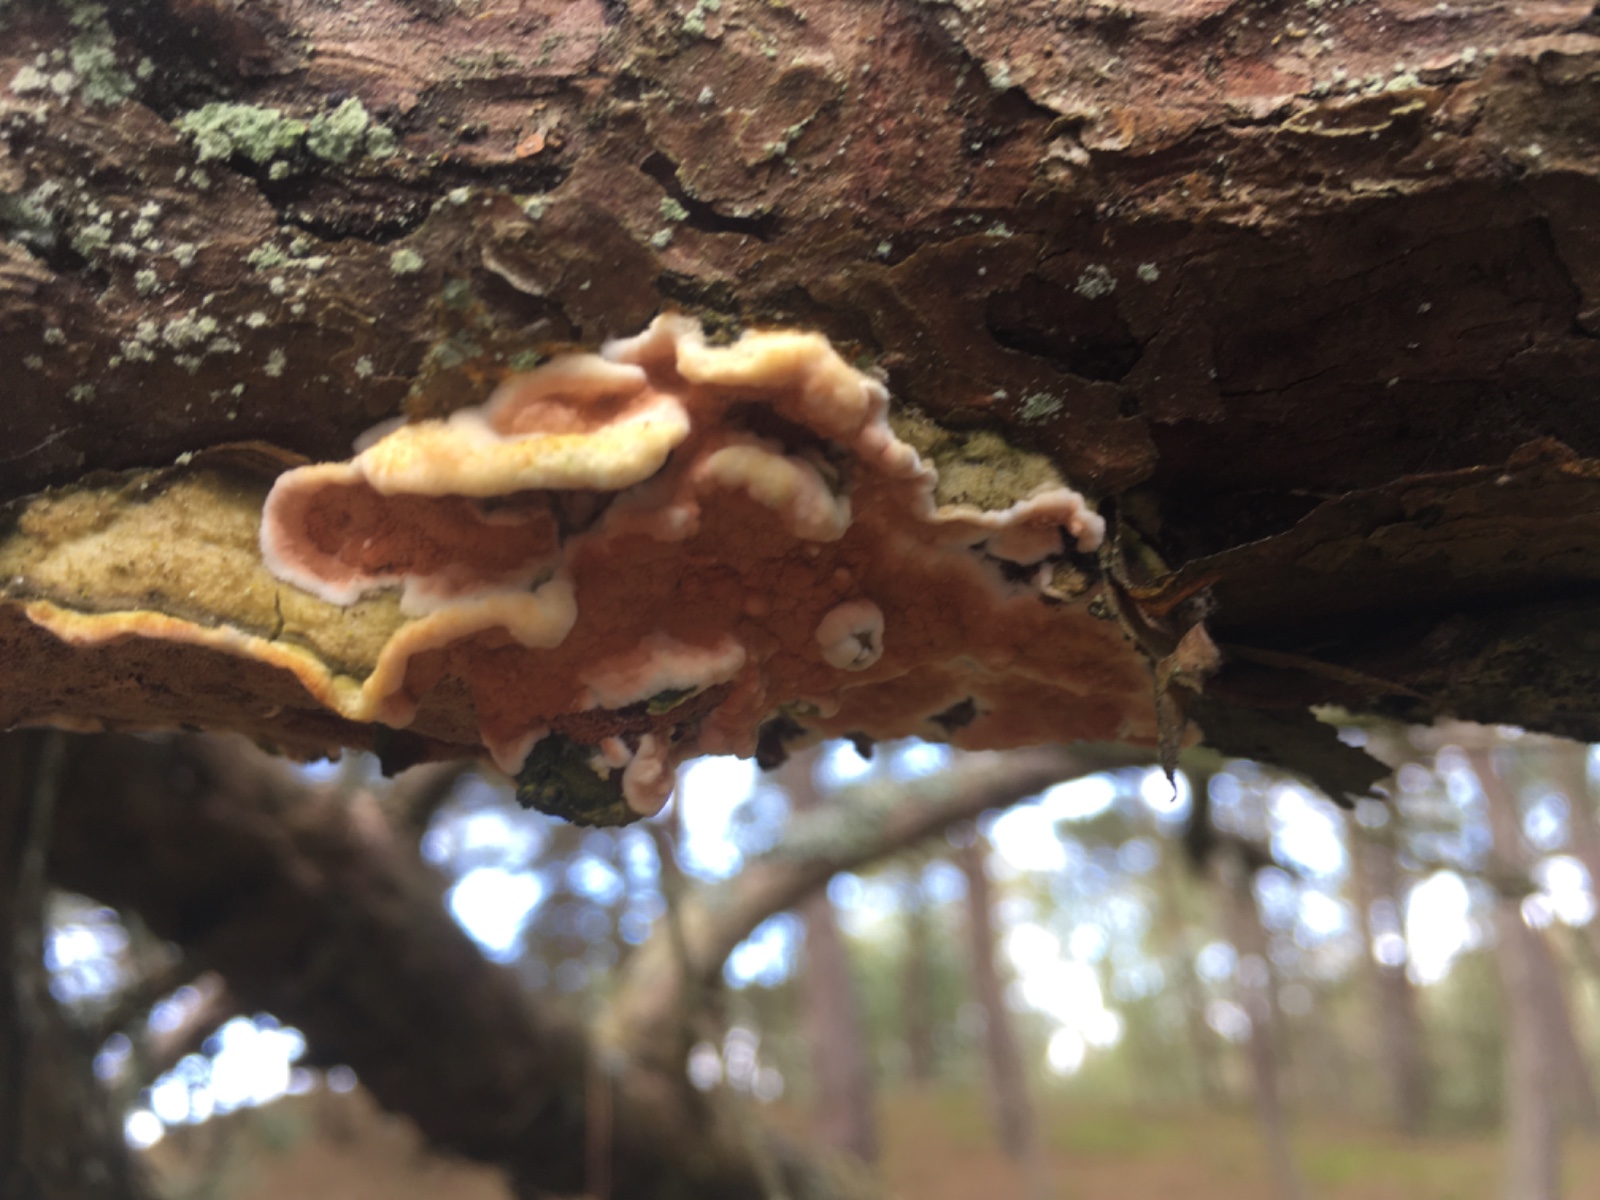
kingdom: Fungi
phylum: Basidiomycota
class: Agaricomycetes
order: Polyporales
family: Irpicaceae
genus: Meruliopsis
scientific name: Meruliopsis taxicola
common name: purpurbrun foldporesvamp
